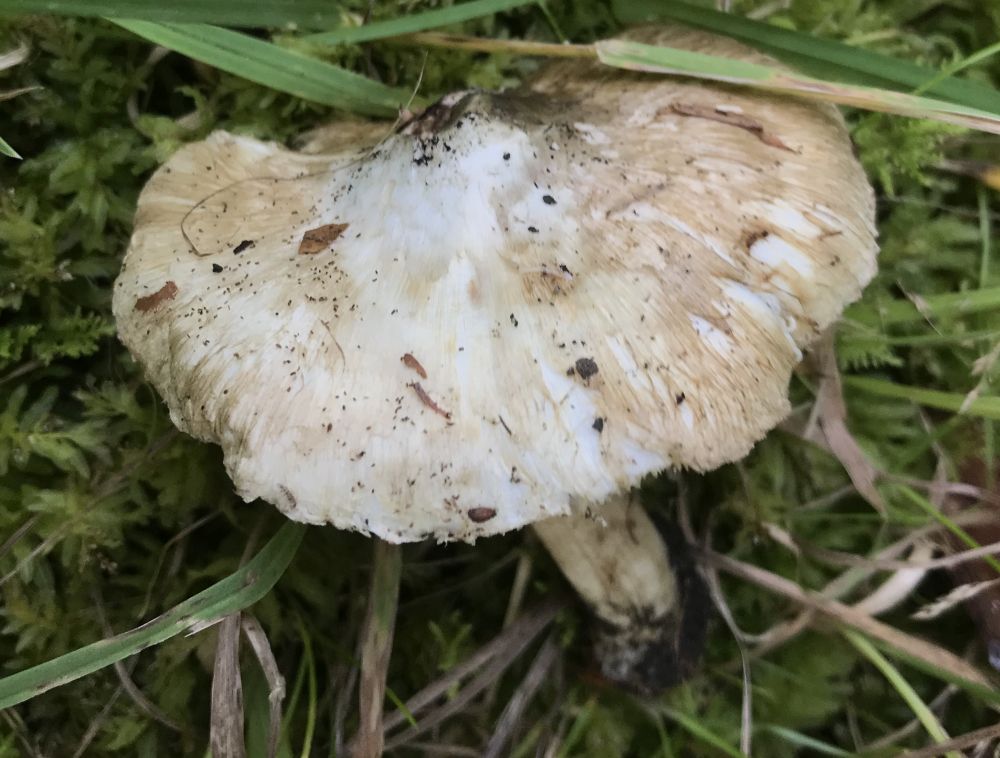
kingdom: Fungi
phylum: Basidiomycota
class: Agaricomycetes
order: Agaricales
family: Inocybaceae
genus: Inocybe
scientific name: Inocybe corydalina
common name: grønpuklet trævlhat
